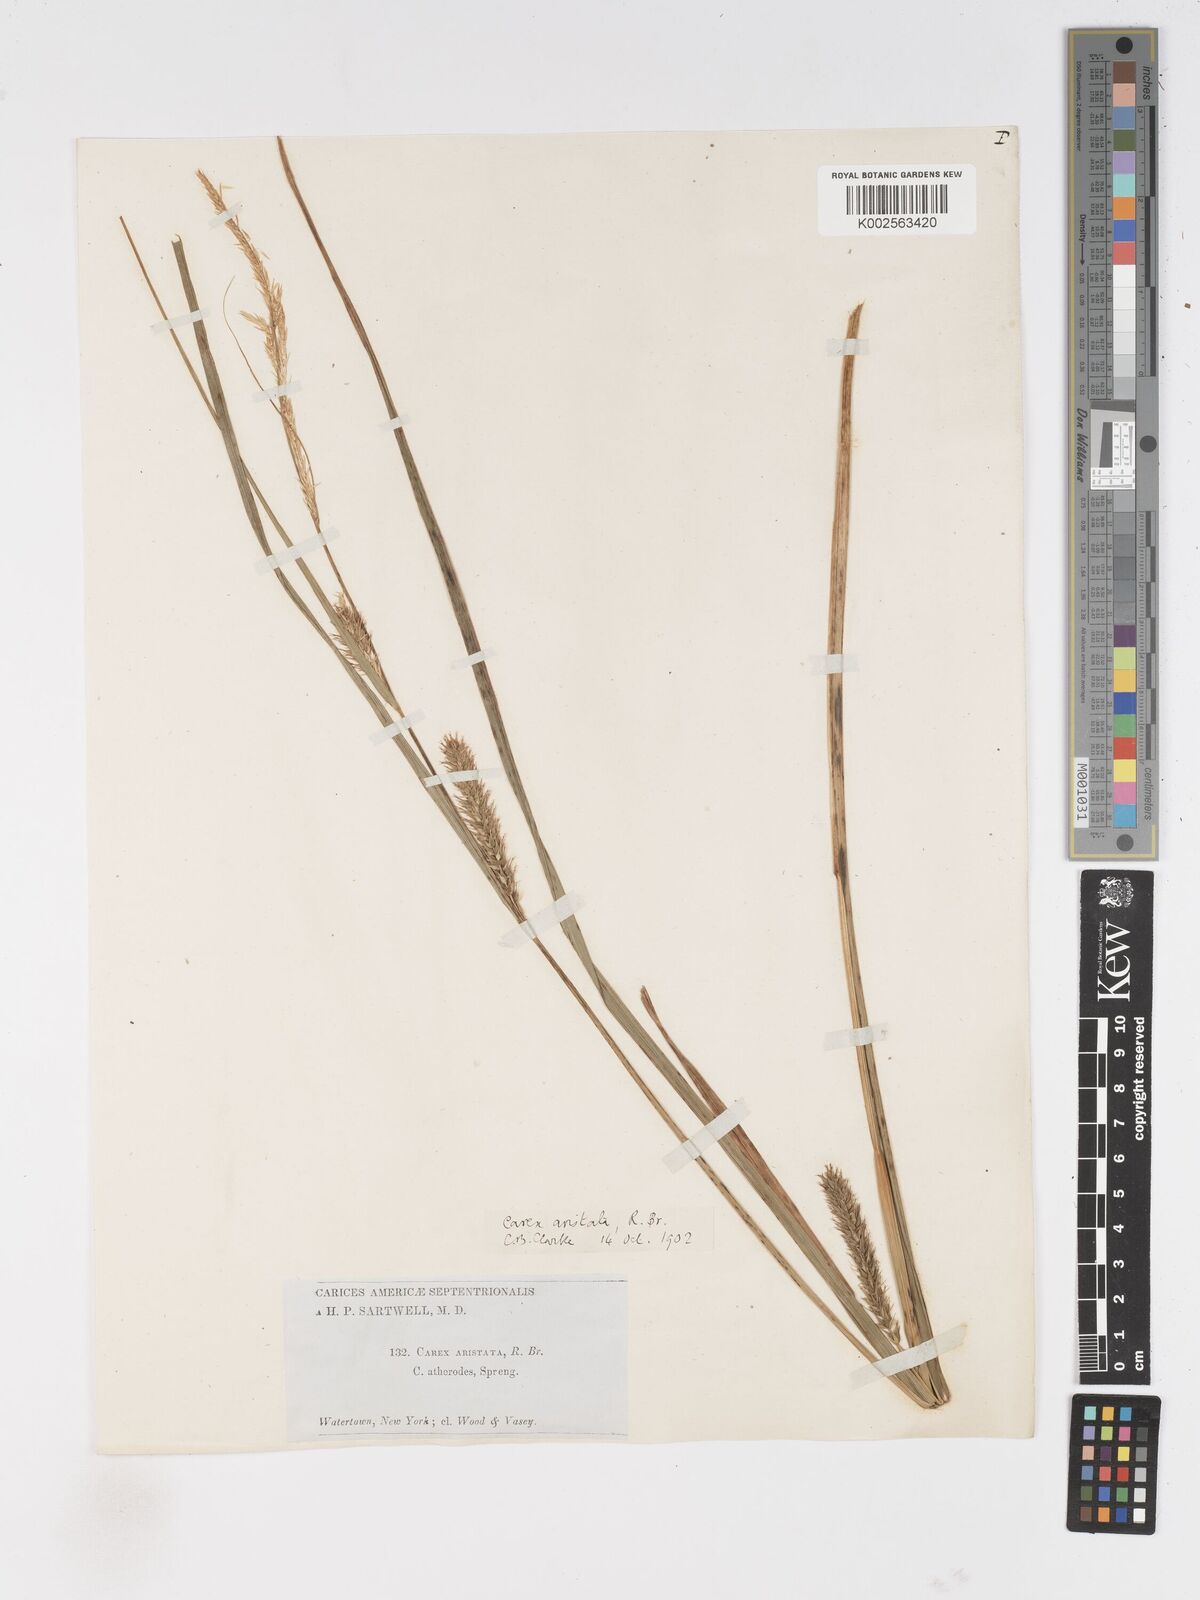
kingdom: Plantae
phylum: Tracheophyta
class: Liliopsida
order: Poales
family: Cyperaceae
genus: Carex
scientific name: Carex atherodes
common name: Wheat sedge
